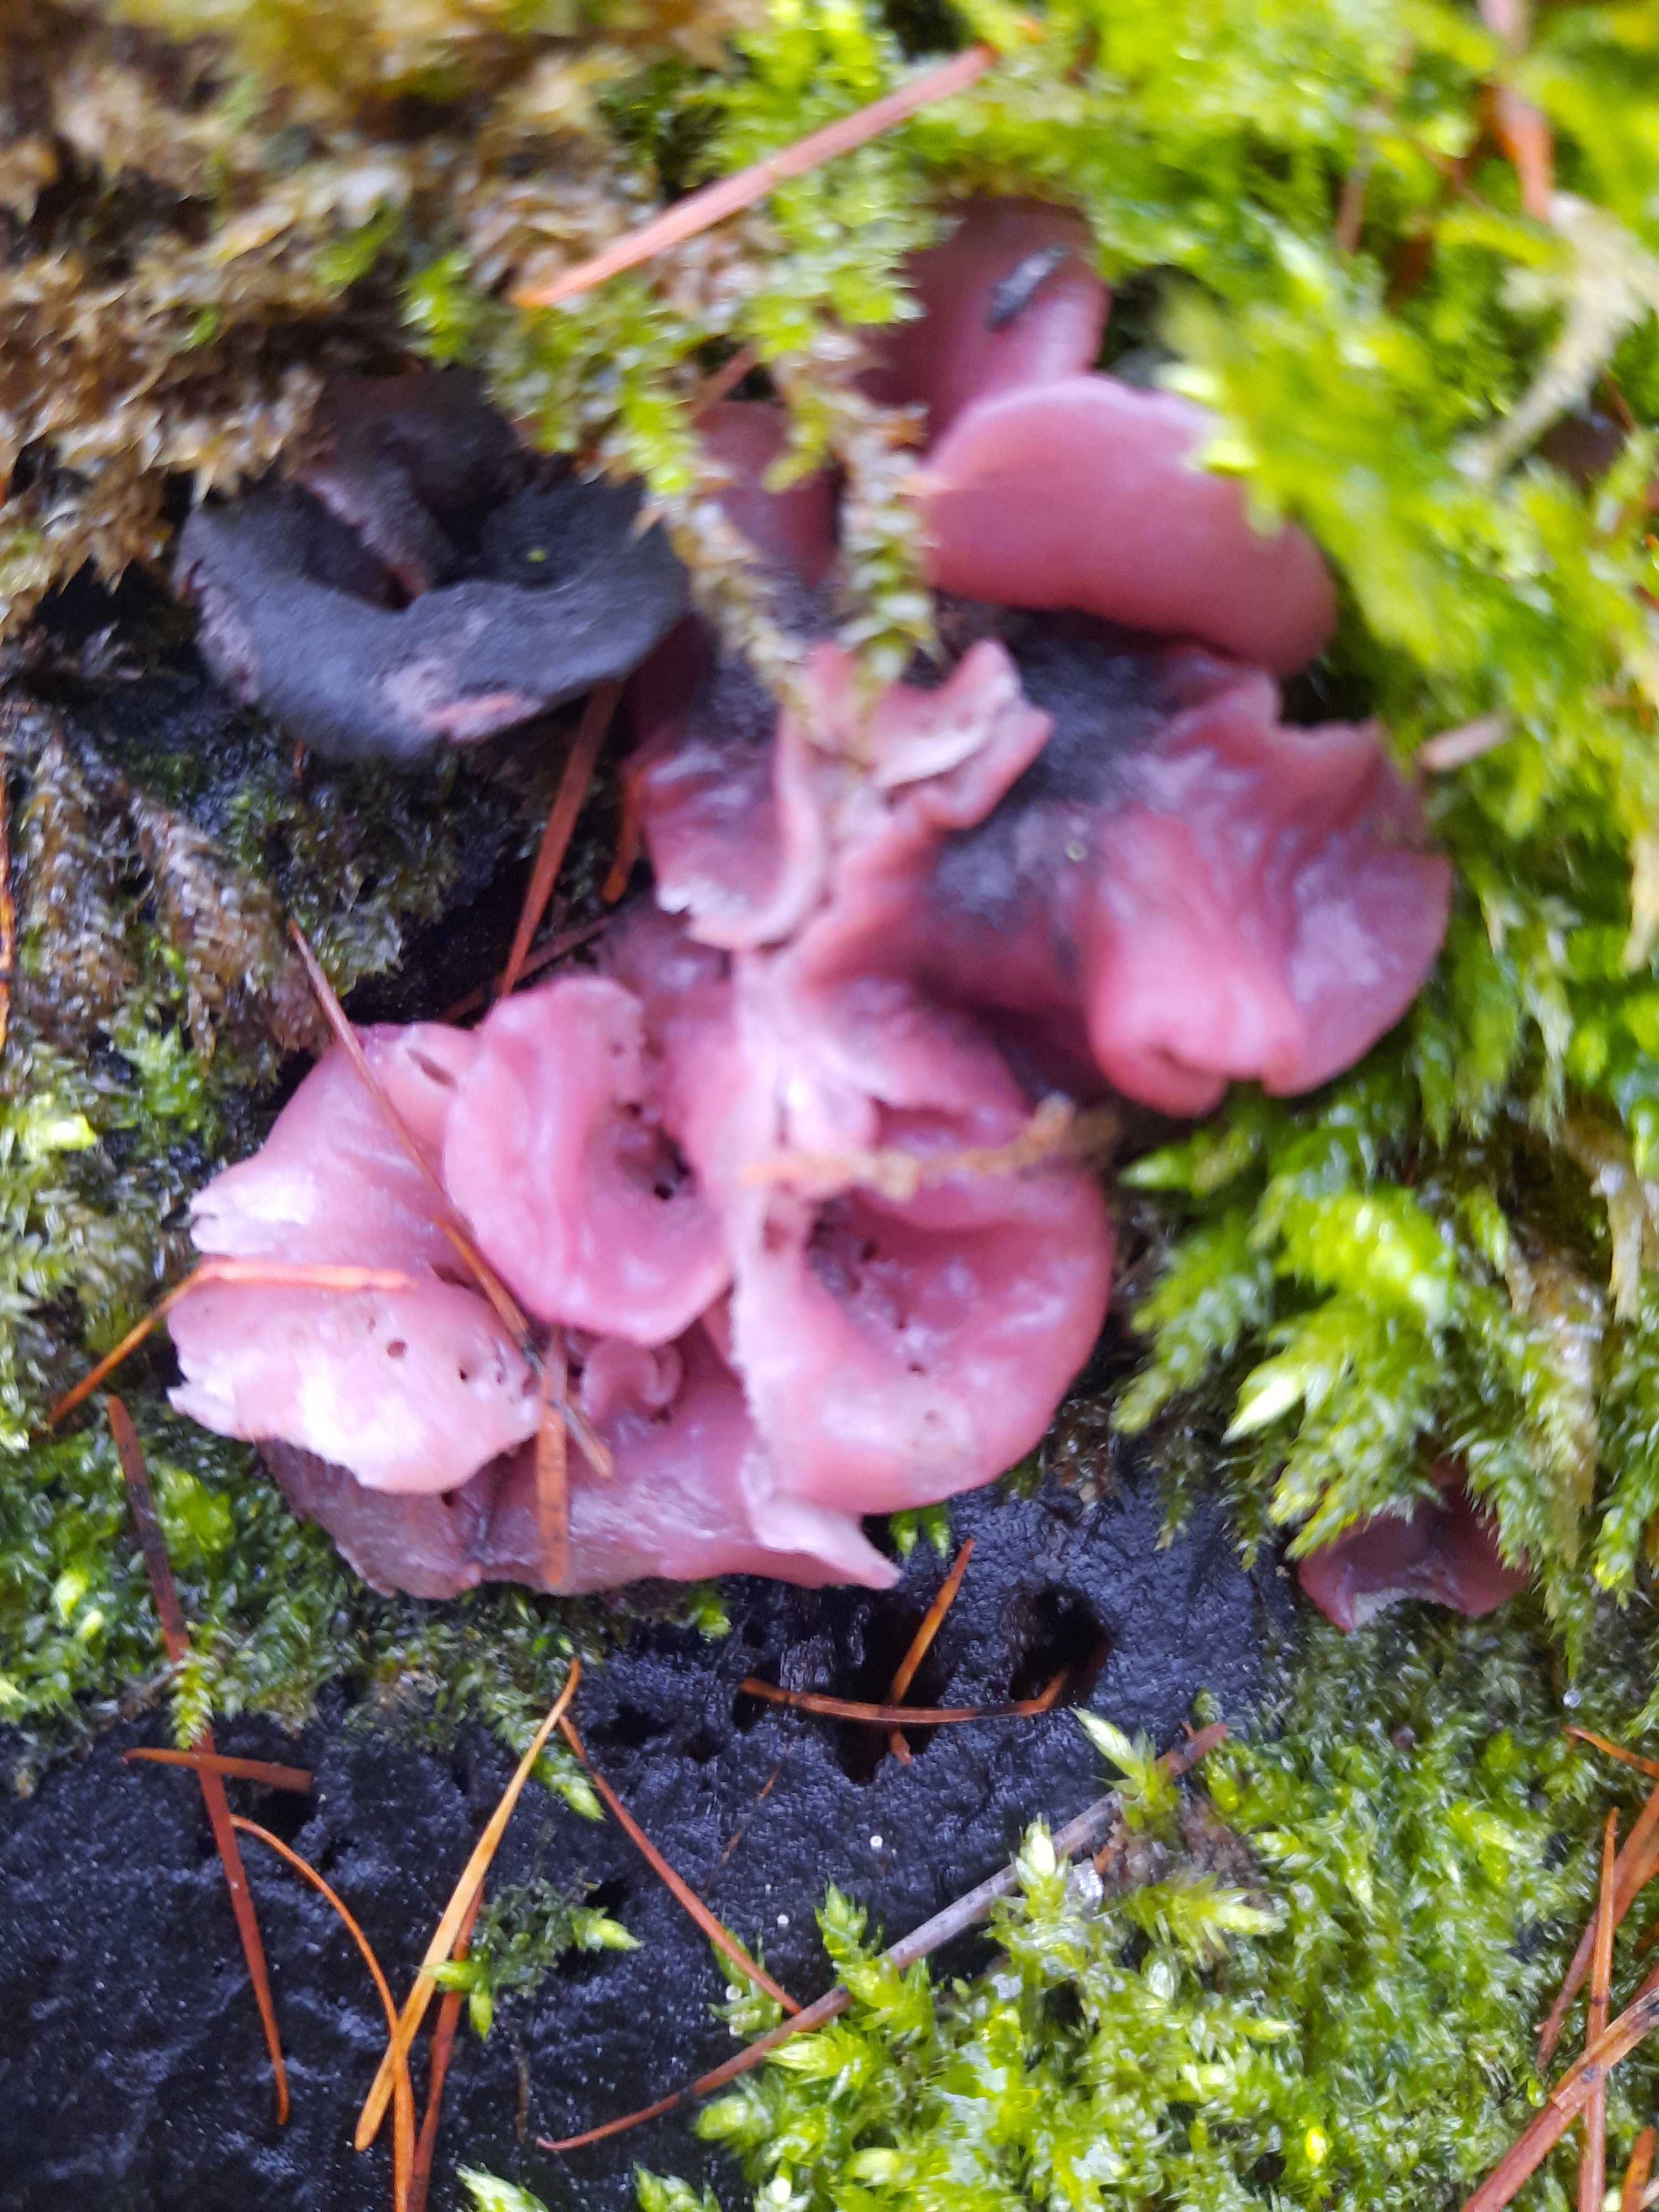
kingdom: Fungi
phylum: Ascomycota
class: Leotiomycetes
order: Helotiales
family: Gelatinodiscaceae
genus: Ascocoryne
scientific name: Ascocoryne
